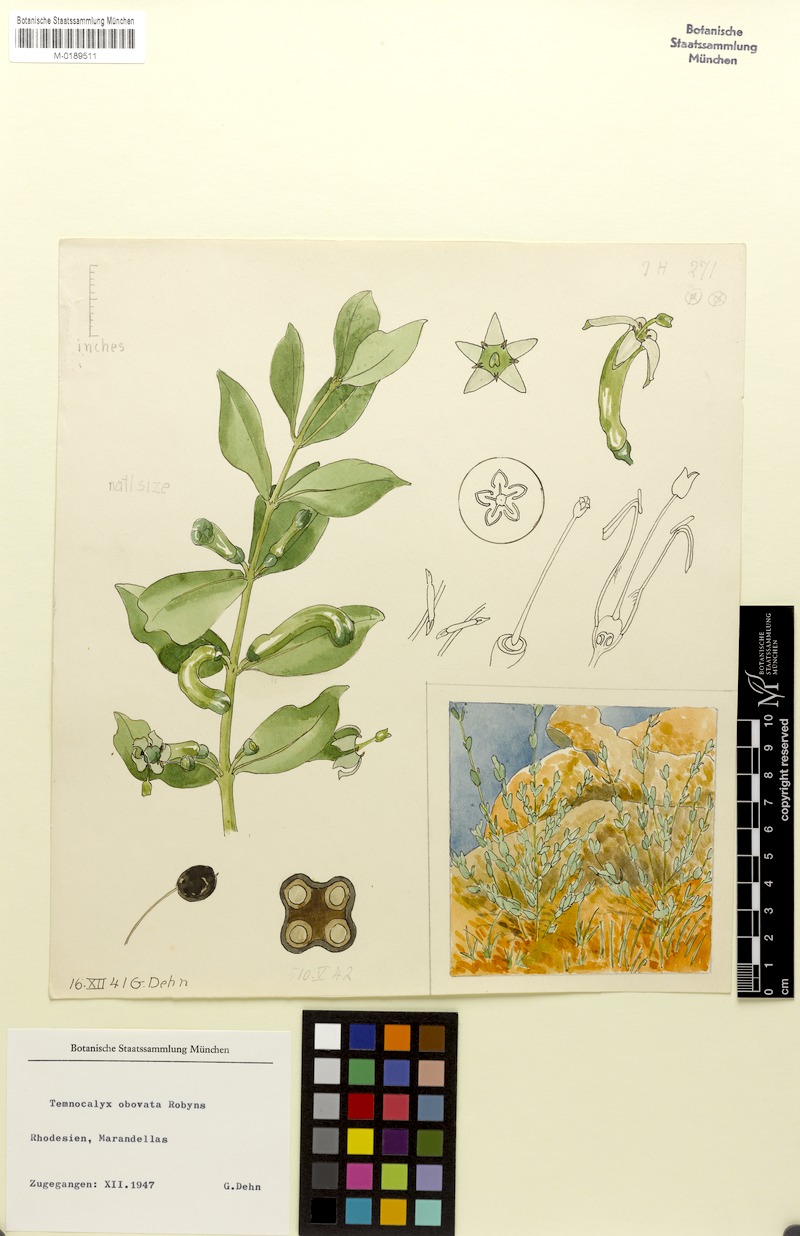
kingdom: Plantae
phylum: Tracheophyta
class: Magnoliopsida
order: Gentianales
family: Rubiaceae
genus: Fadogia
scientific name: Fadogia ancylantha
